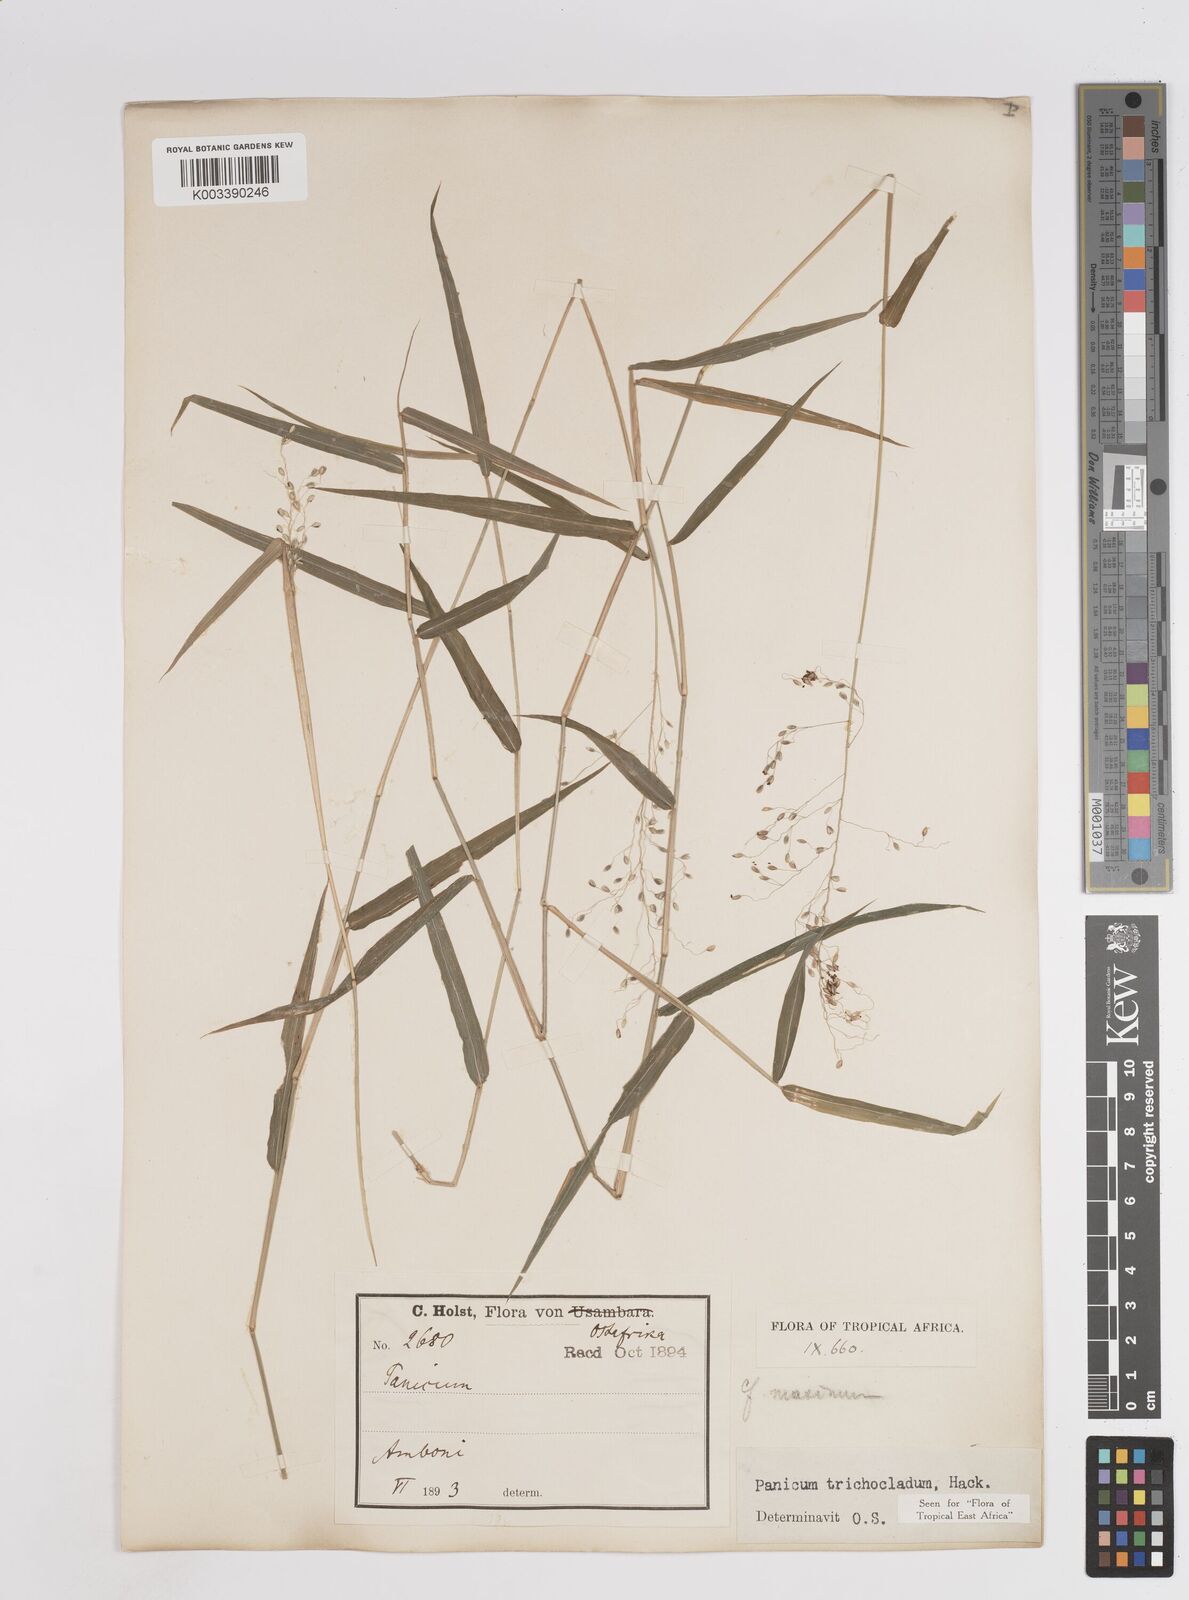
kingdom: Plantae
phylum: Tracheophyta
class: Liliopsida
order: Poales
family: Poaceae
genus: Panicum
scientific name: Panicum trichocladum
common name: Donkey grass
